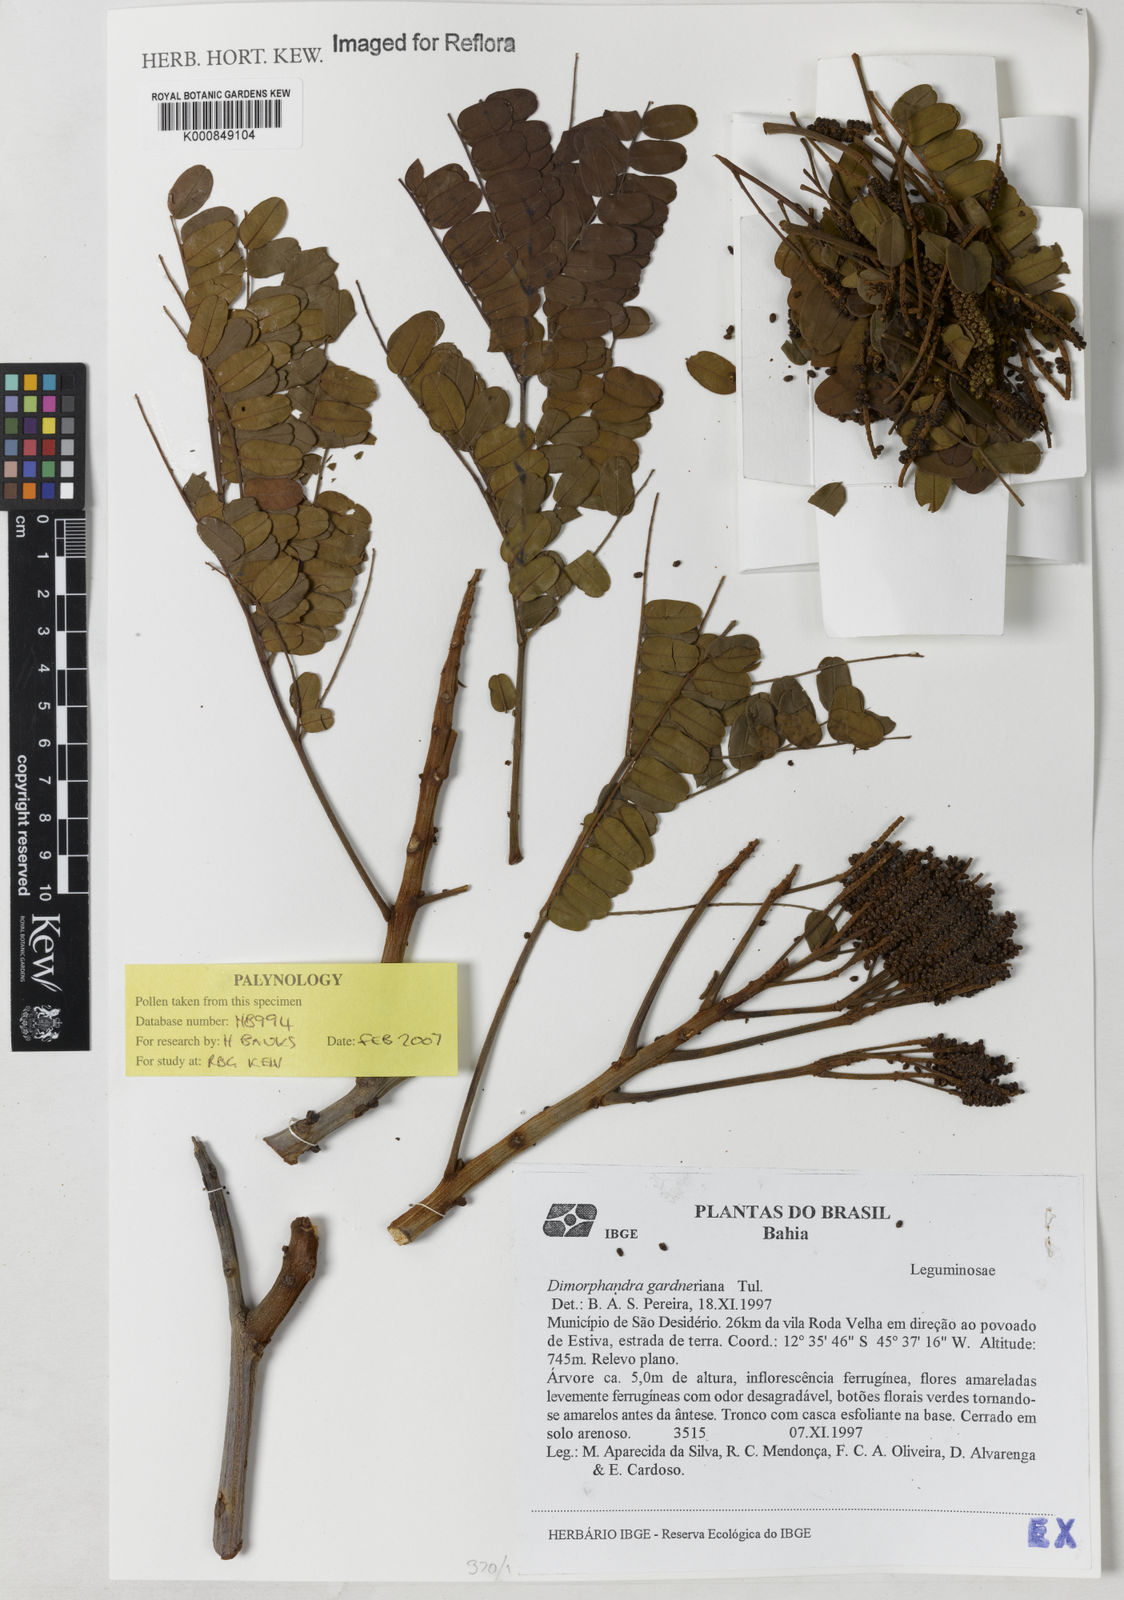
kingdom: Plantae
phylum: Tracheophyta
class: Magnoliopsida
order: Fabales
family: Fabaceae
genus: Dimorphandra
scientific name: Dimorphandra gardneriana
